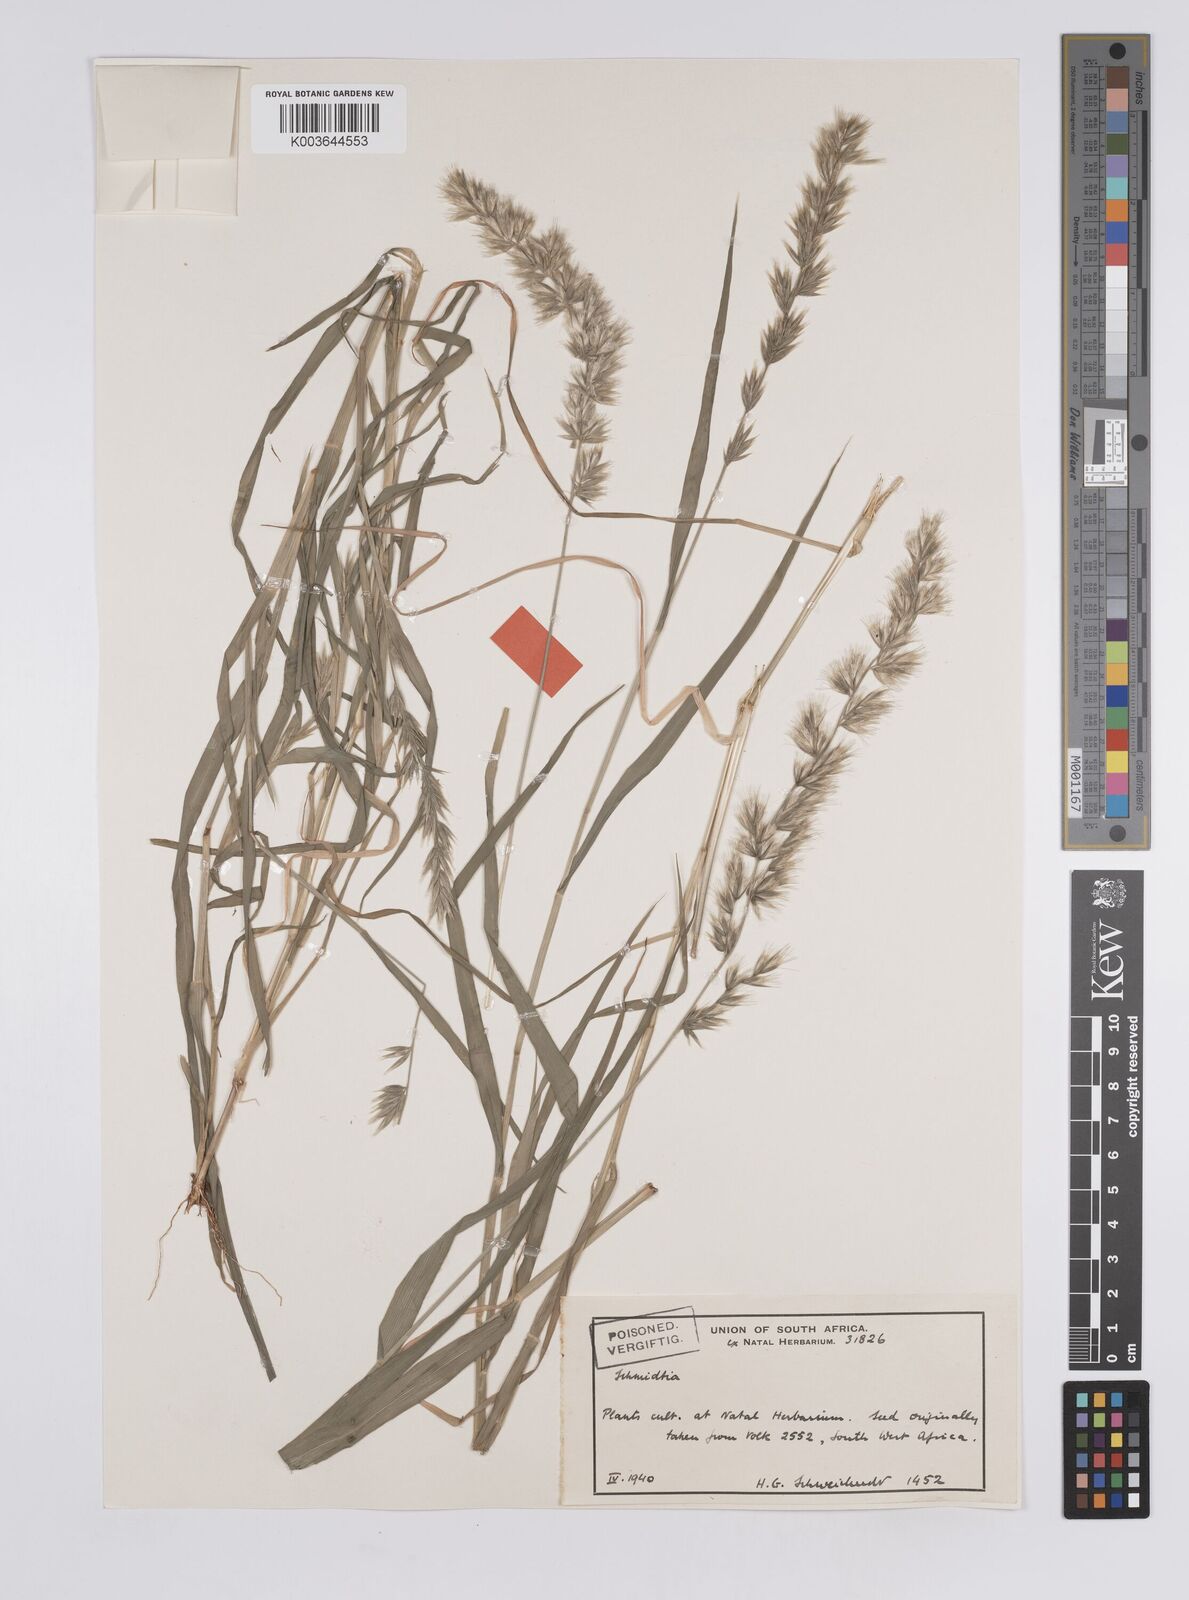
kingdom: Plantae
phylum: Tracheophyta
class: Liliopsida
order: Poales
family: Poaceae
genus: Schmidtia
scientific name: Schmidtia kalahariensis
